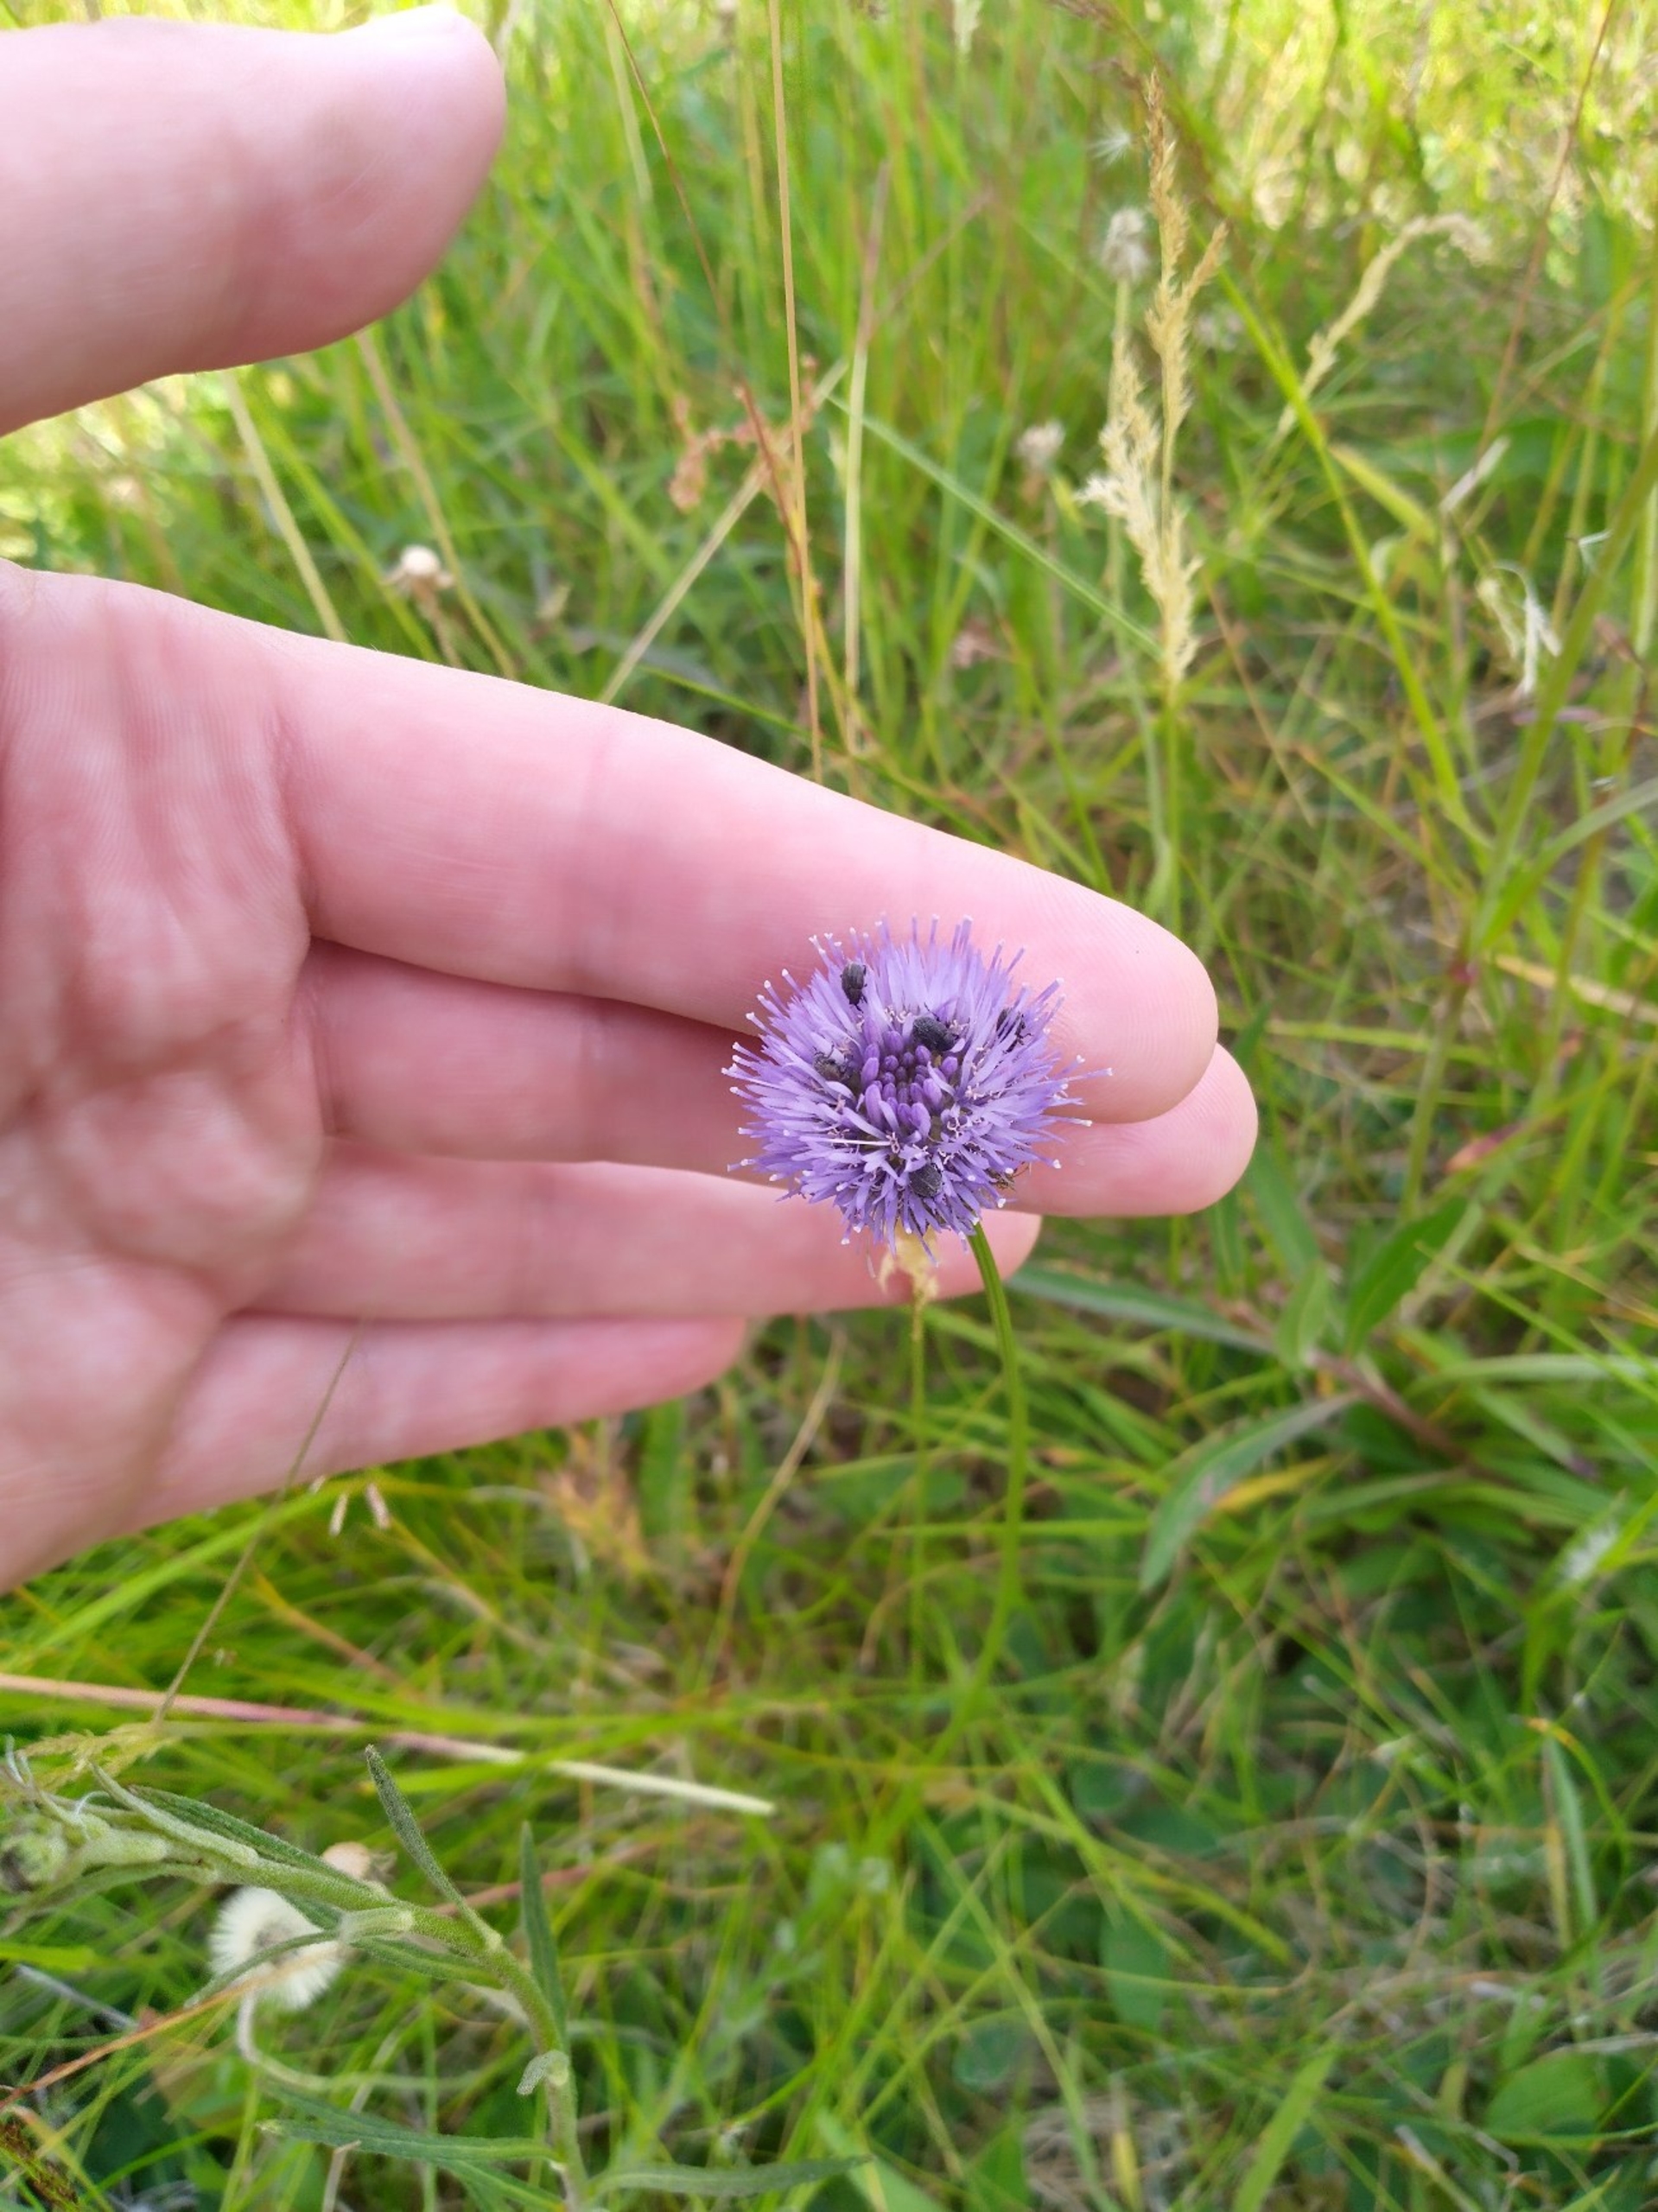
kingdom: Plantae
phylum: Tracheophyta
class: Magnoliopsida
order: Asterales
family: Campanulaceae
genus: Jasione
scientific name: Jasione montana
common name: Blåmunke
